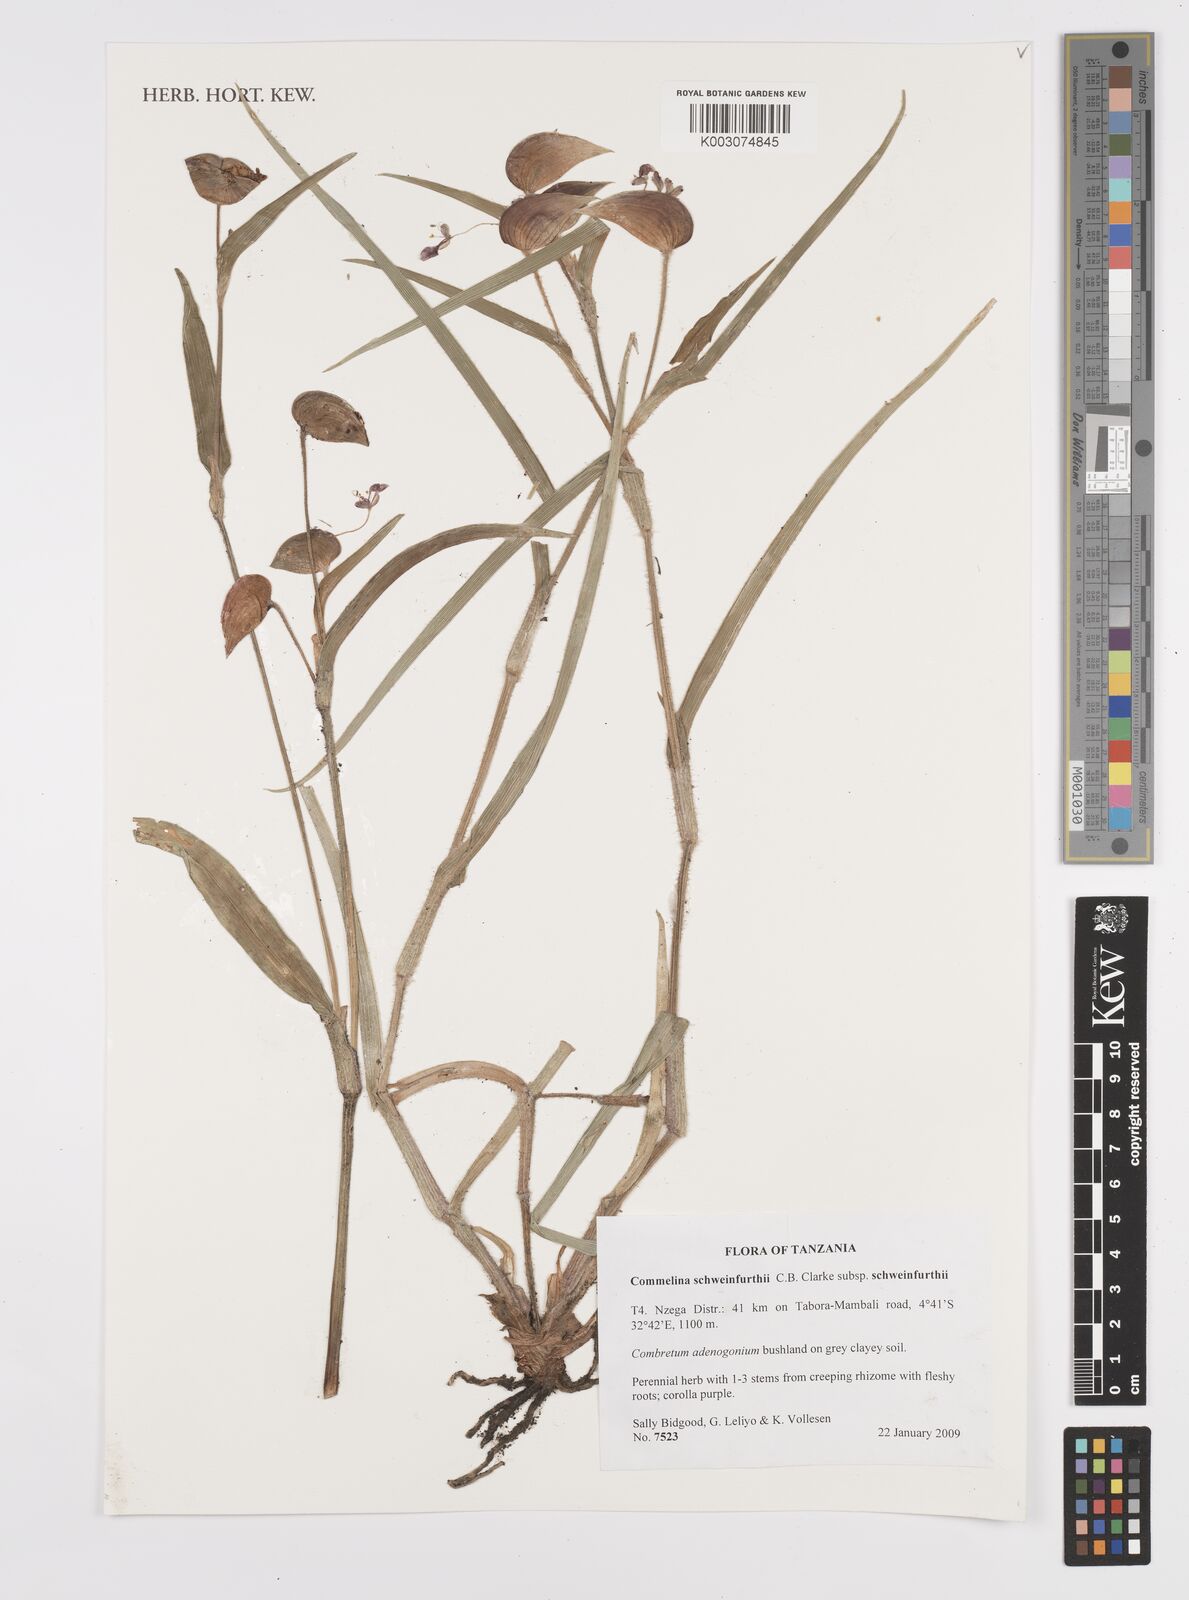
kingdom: Plantae
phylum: Tracheophyta
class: Liliopsida
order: Commelinales
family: Commelinaceae
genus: Commelina
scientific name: Commelina schweinfurthii
